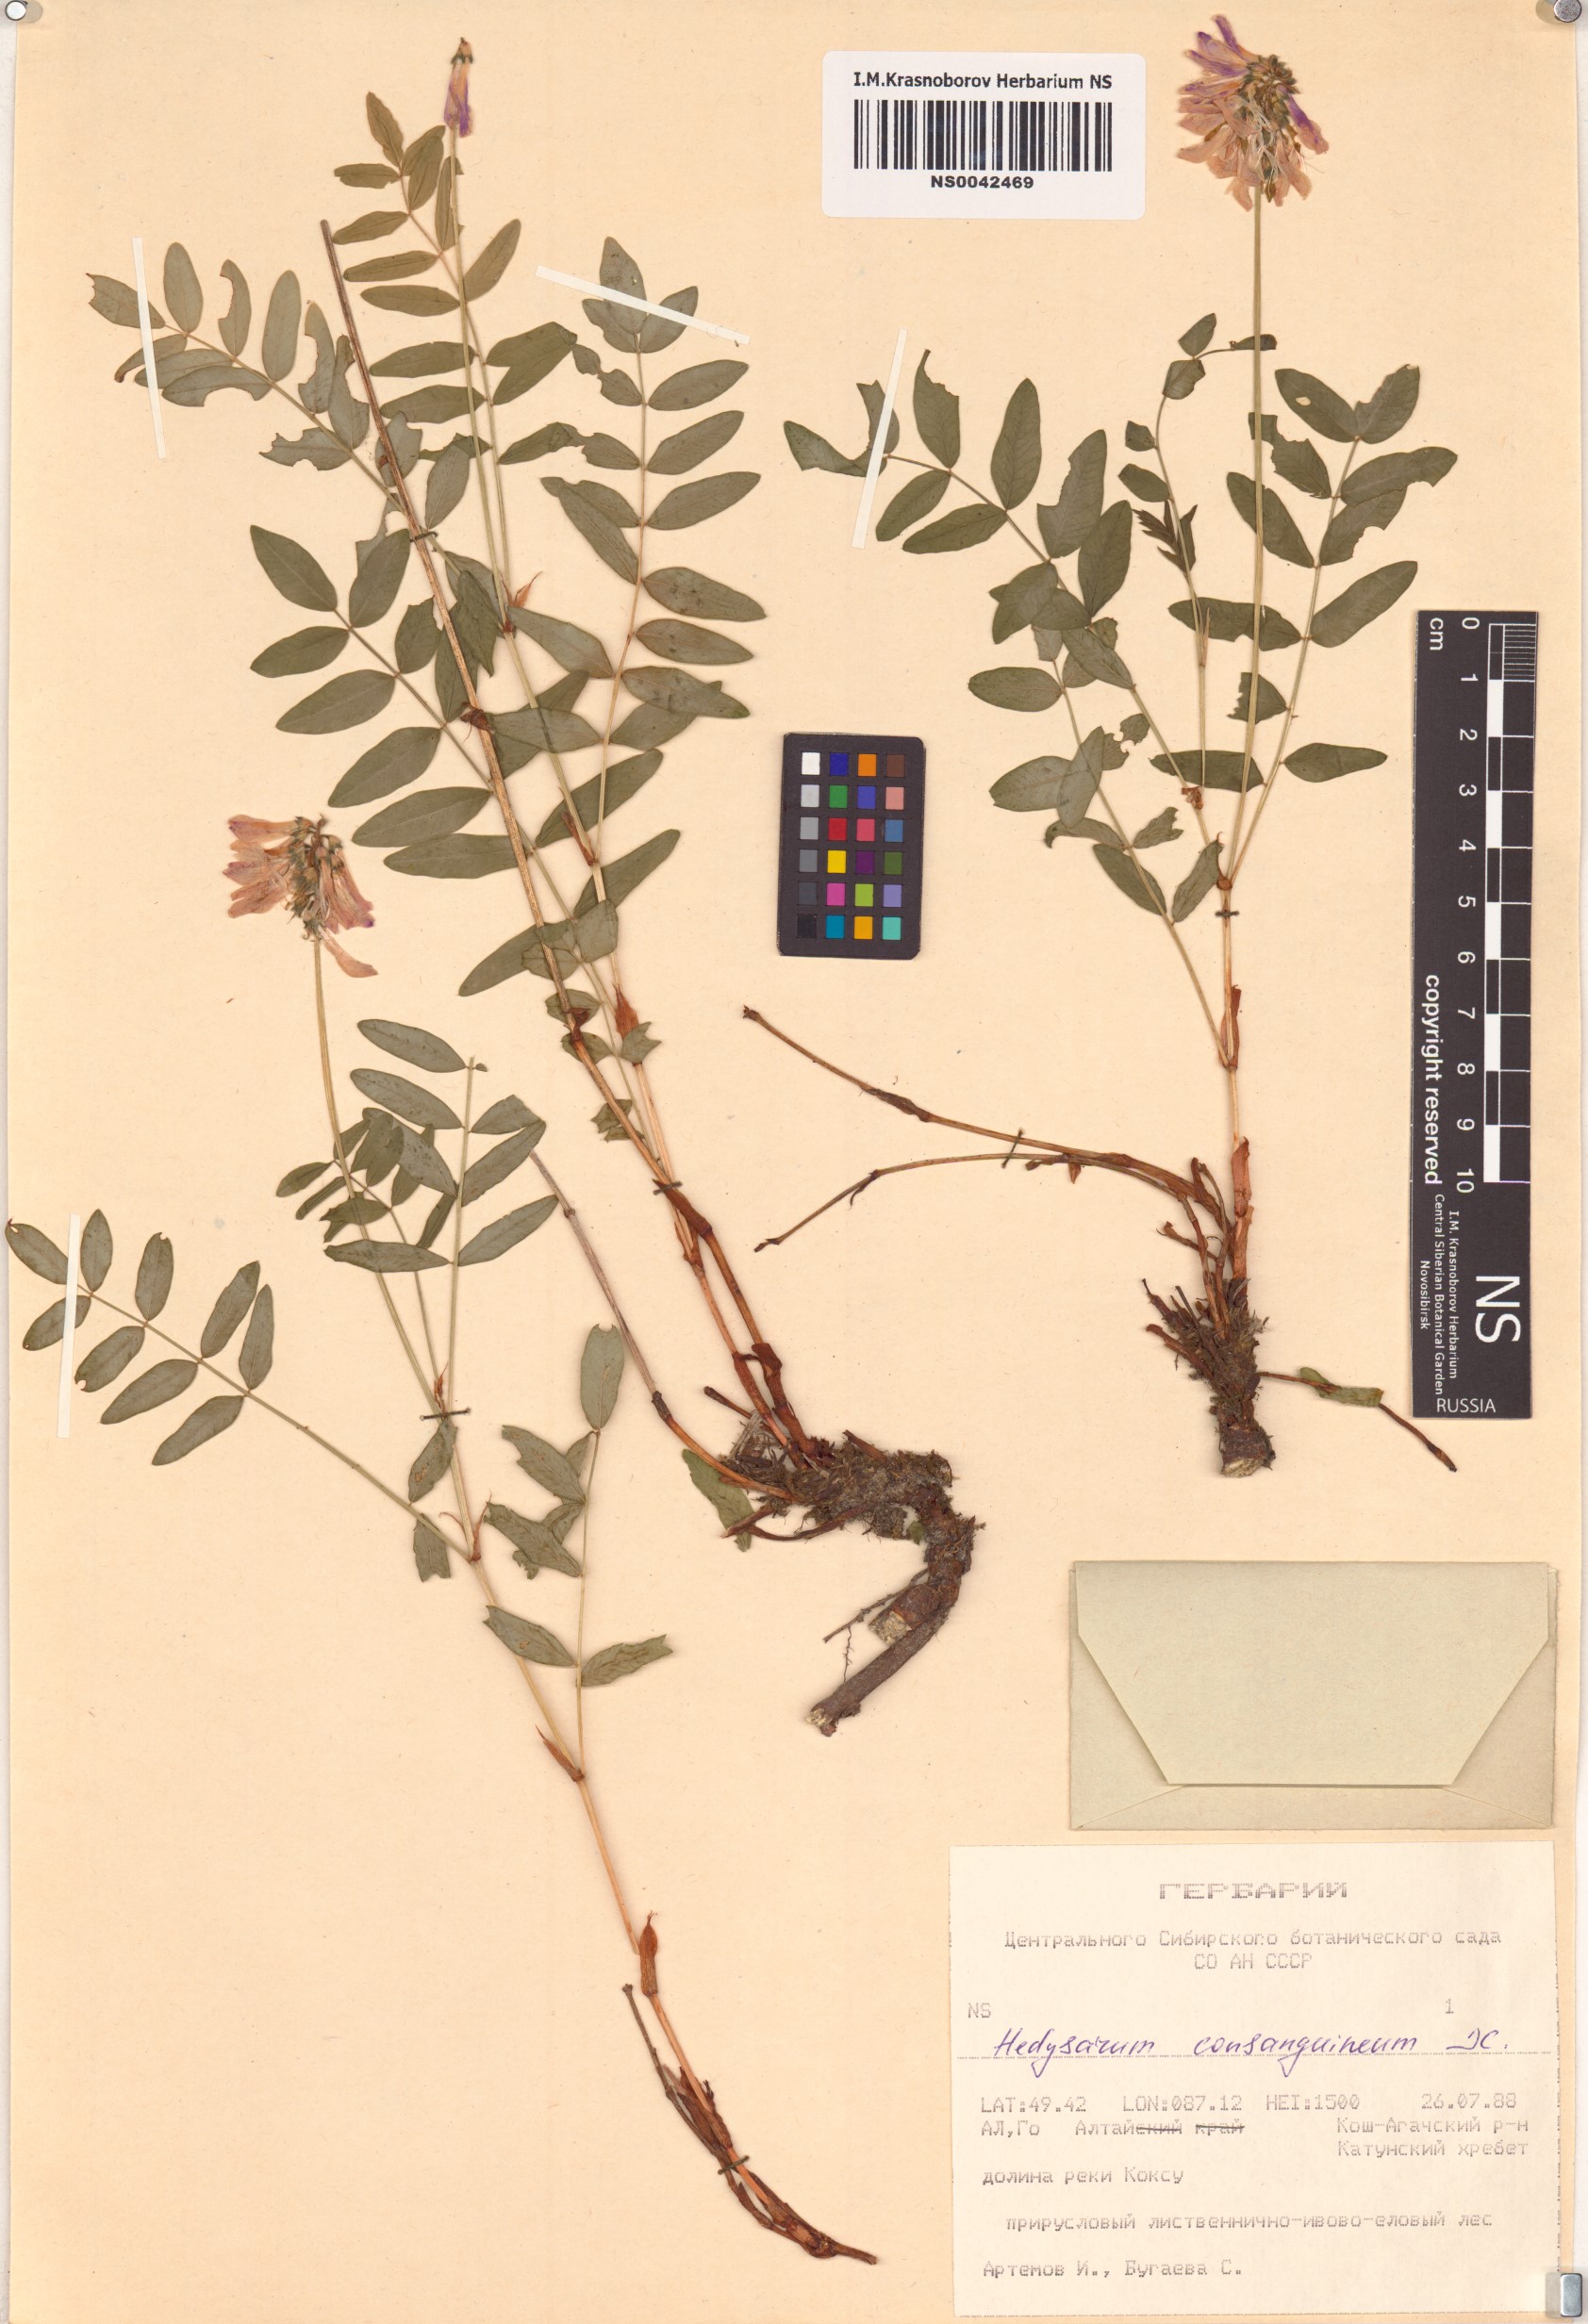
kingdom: Plantae
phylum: Tracheophyta
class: Magnoliopsida
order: Fabales
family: Fabaceae
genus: Hedysarum
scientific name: Hedysarum consanguineum
